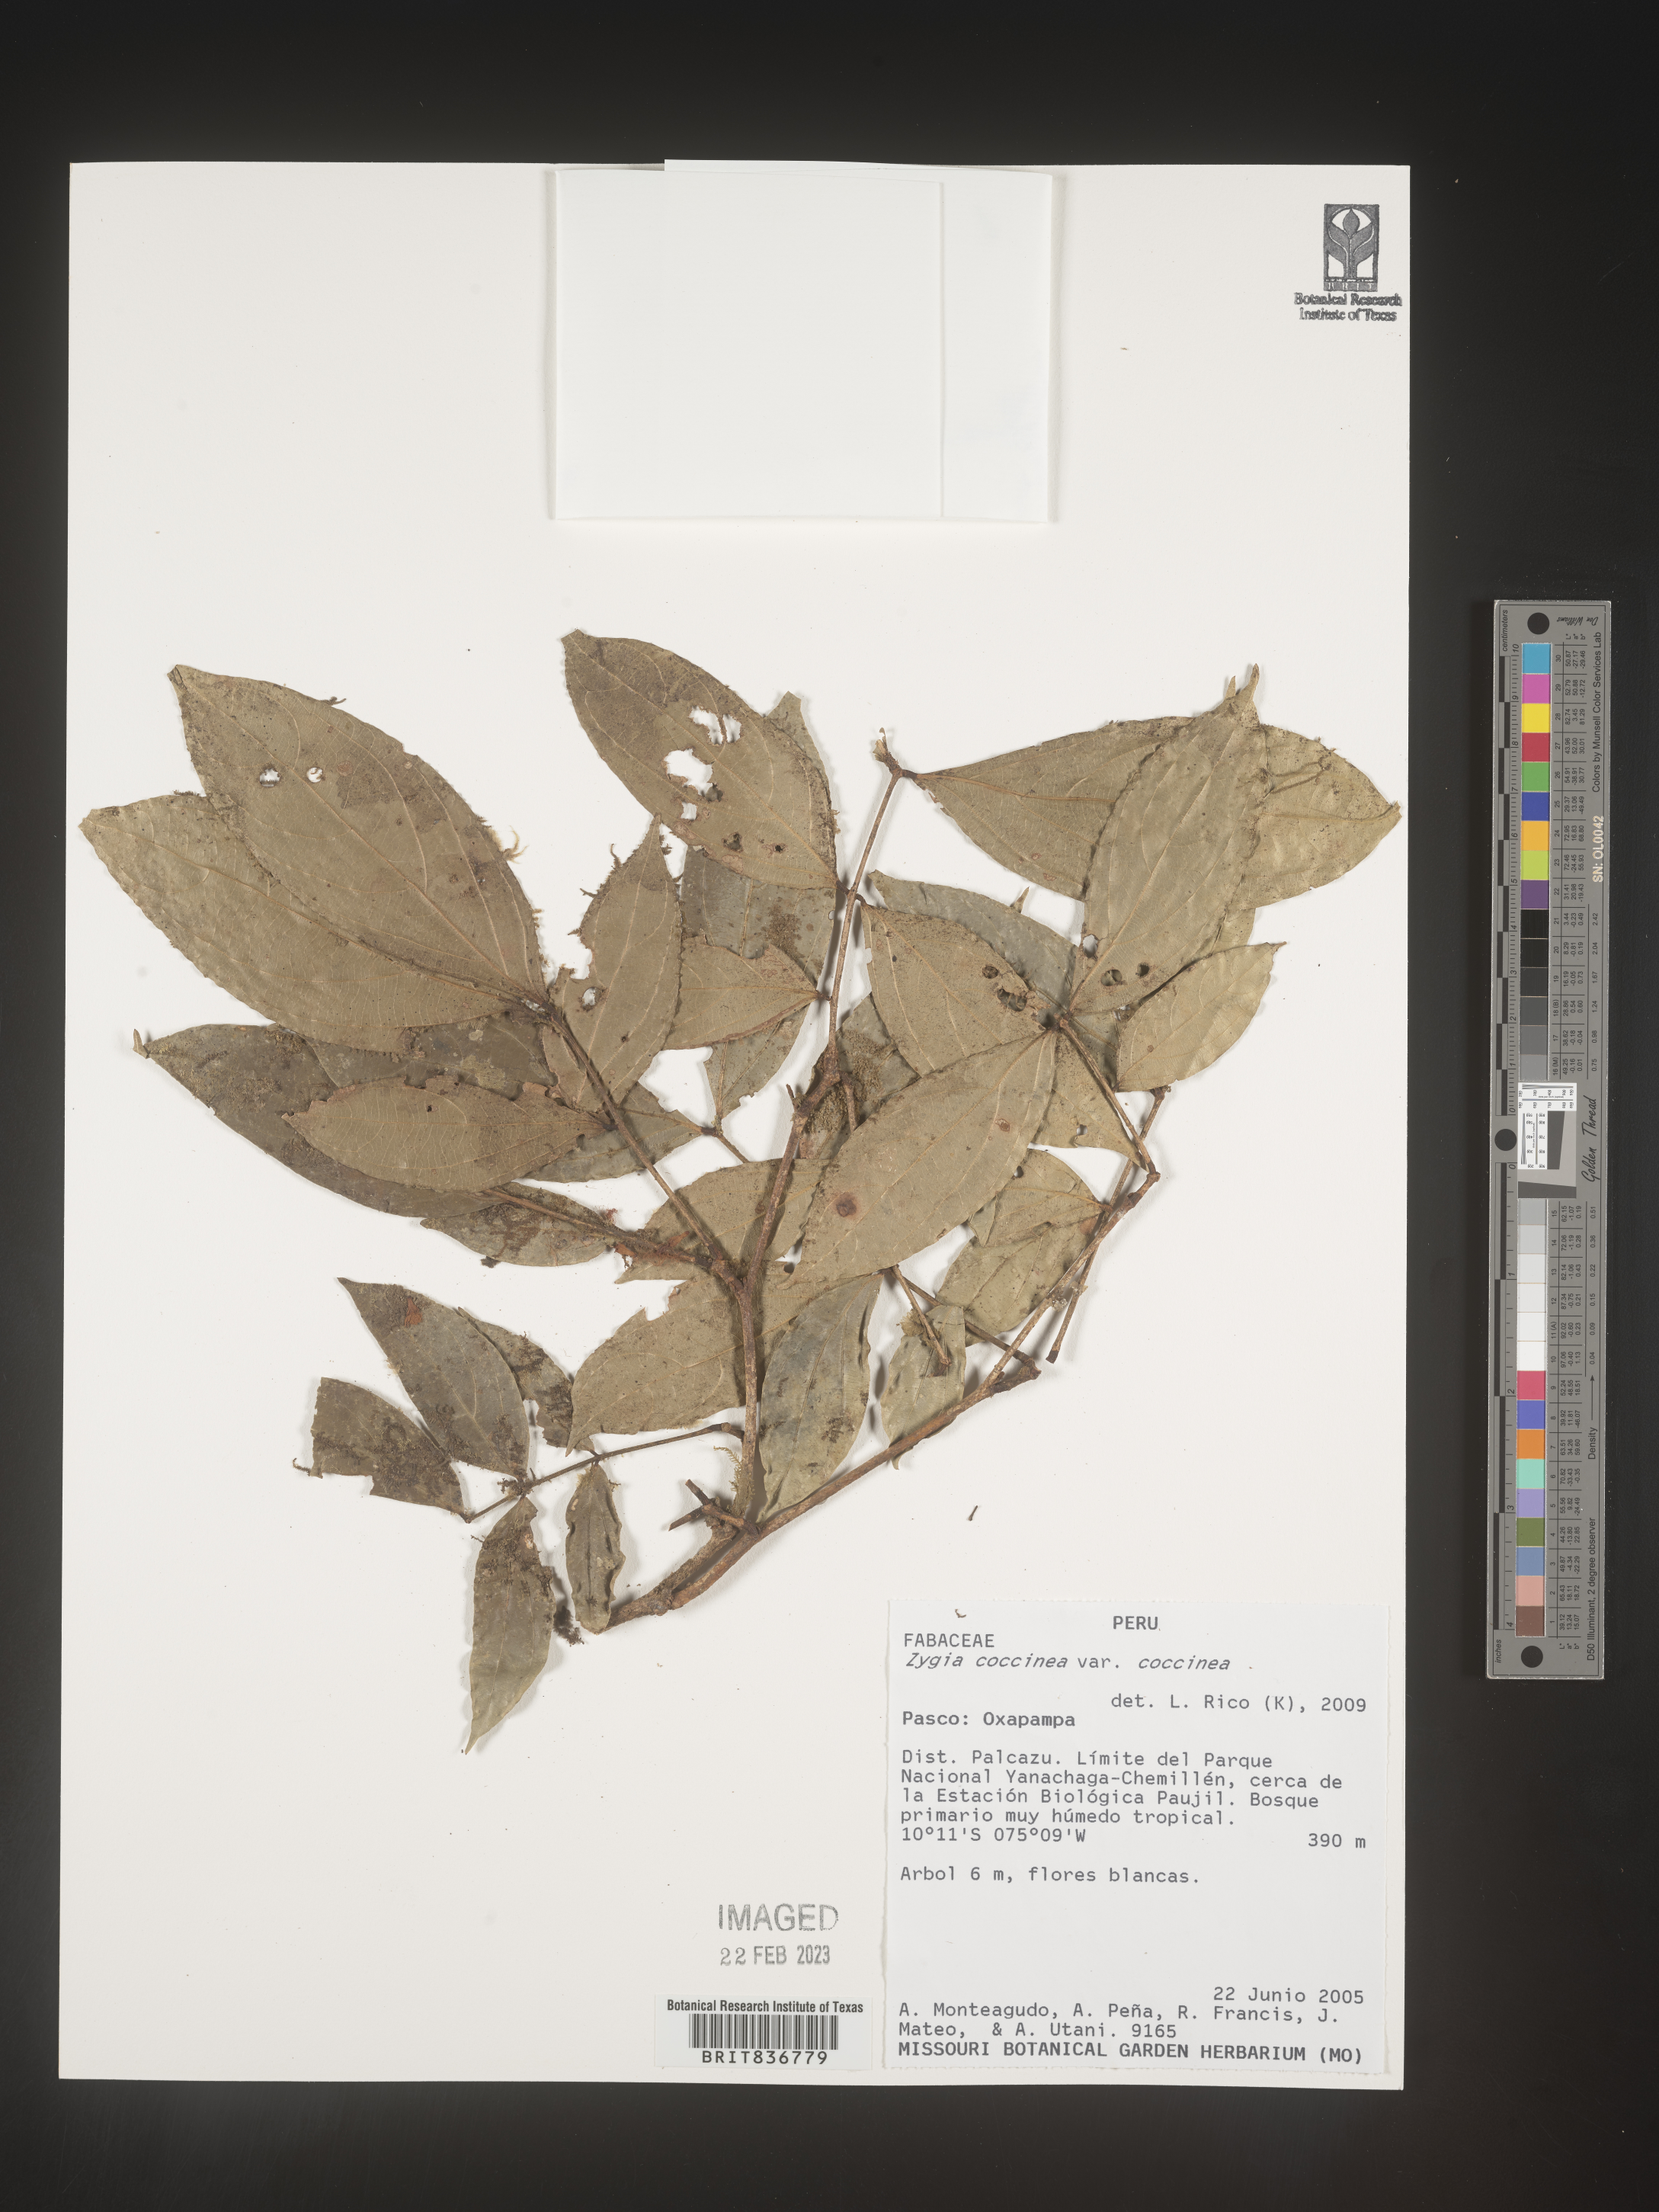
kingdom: Plantae
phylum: Tracheophyta
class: Magnoliopsida
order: Fabales
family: Fabaceae
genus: Zygia
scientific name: Zygia
